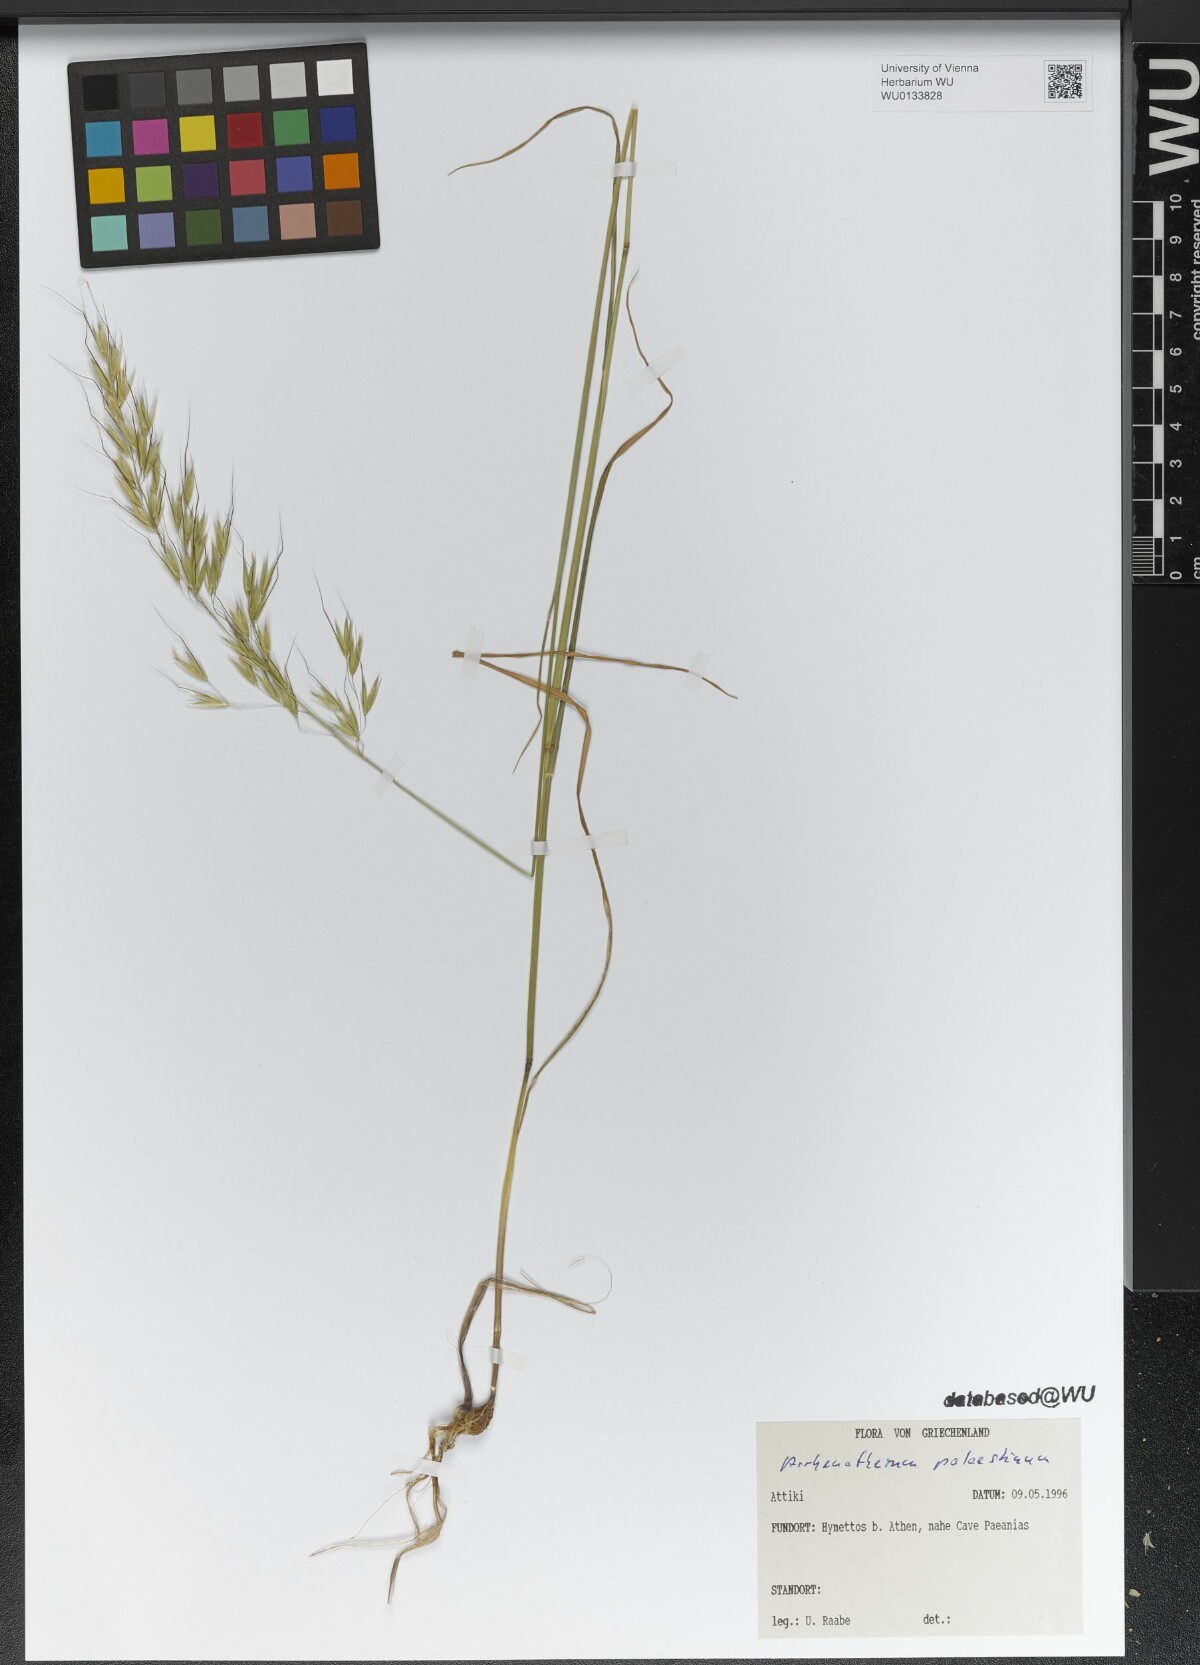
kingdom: Plantae
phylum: Tracheophyta
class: Liliopsida
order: Poales
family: Poaceae
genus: Arrhenatherum
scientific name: Arrhenatherum palaestinum
